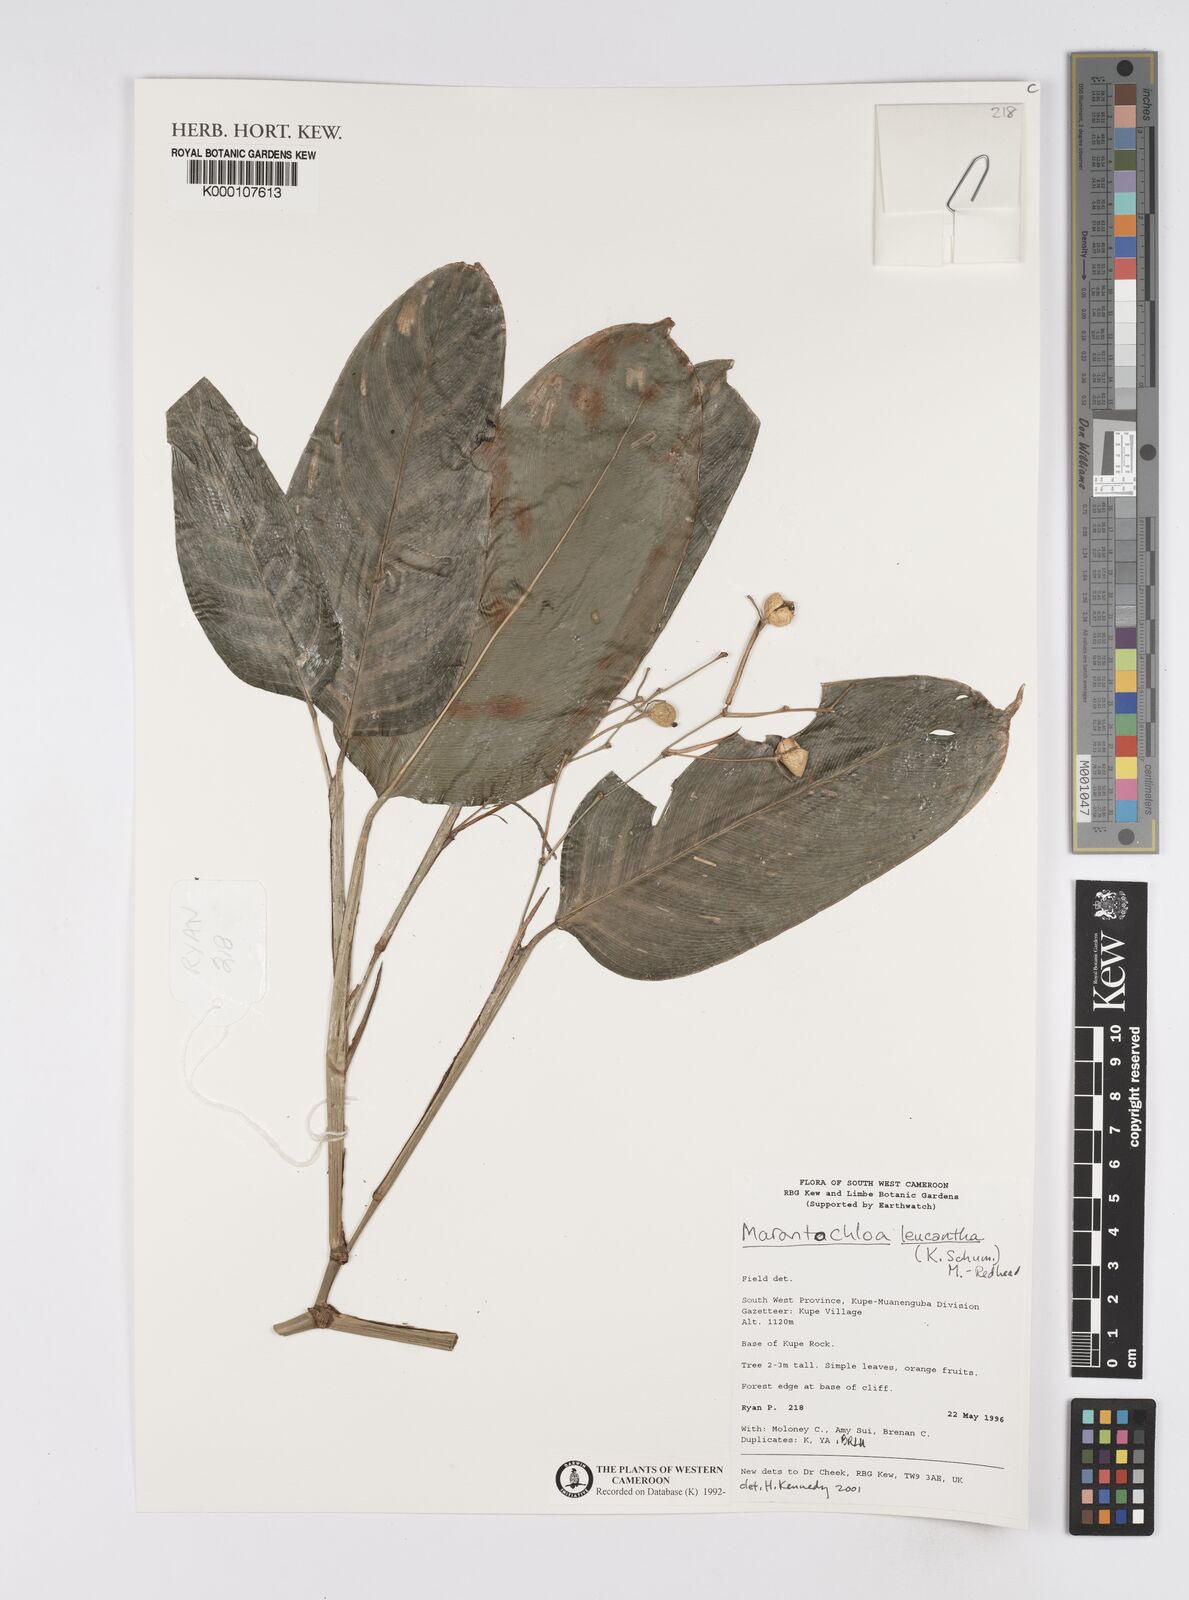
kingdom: Plantae
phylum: Tracheophyta
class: Liliopsida
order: Zingiberales
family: Marantaceae
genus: Marantochloa
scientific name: Marantochloa leucantha
